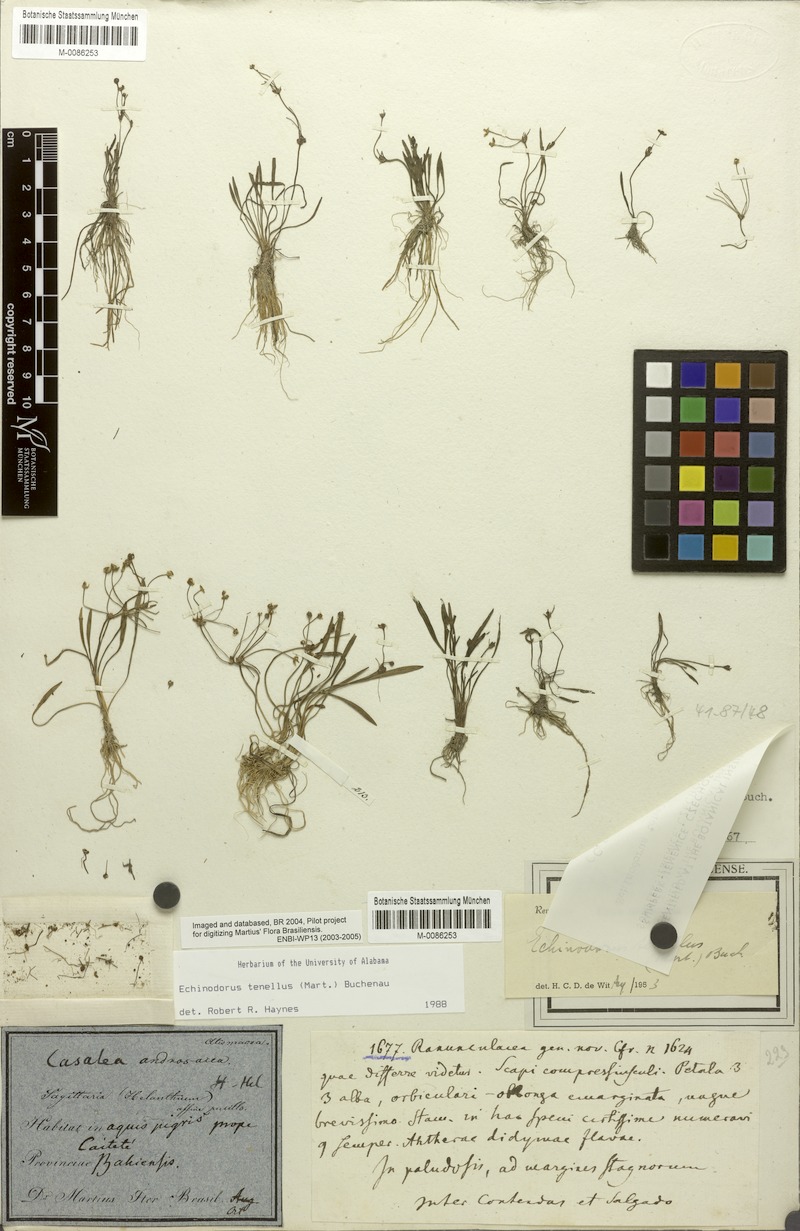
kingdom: Plantae
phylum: Tracheophyta
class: Liliopsida
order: Alismatales
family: Alismataceae
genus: Helanthium
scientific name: Helanthium tenellum
